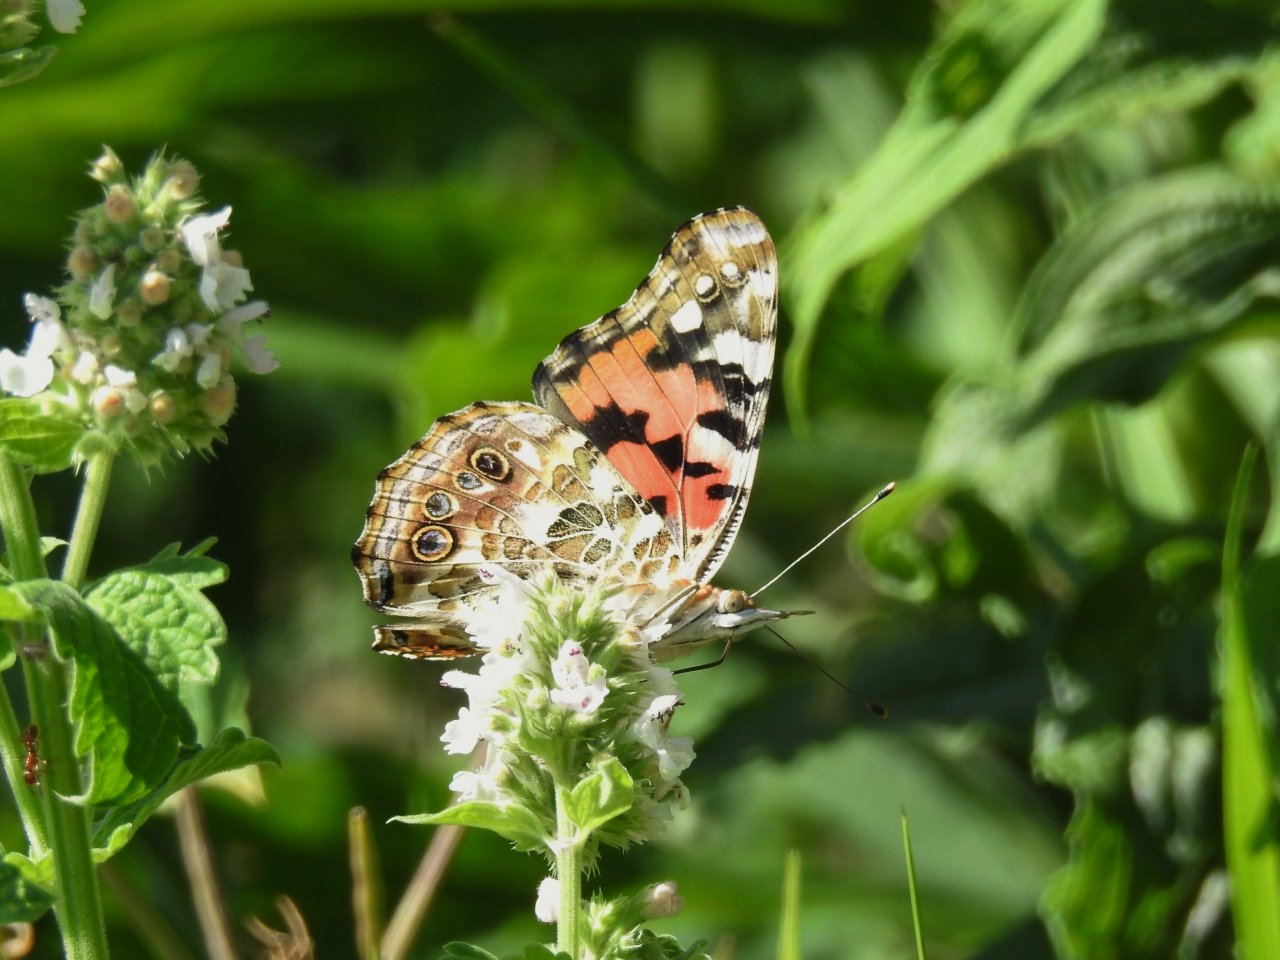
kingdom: Animalia
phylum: Arthropoda
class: Insecta
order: Lepidoptera
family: Nymphalidae
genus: Vanessa
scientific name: Vanessa cardui
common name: Painted Lady
